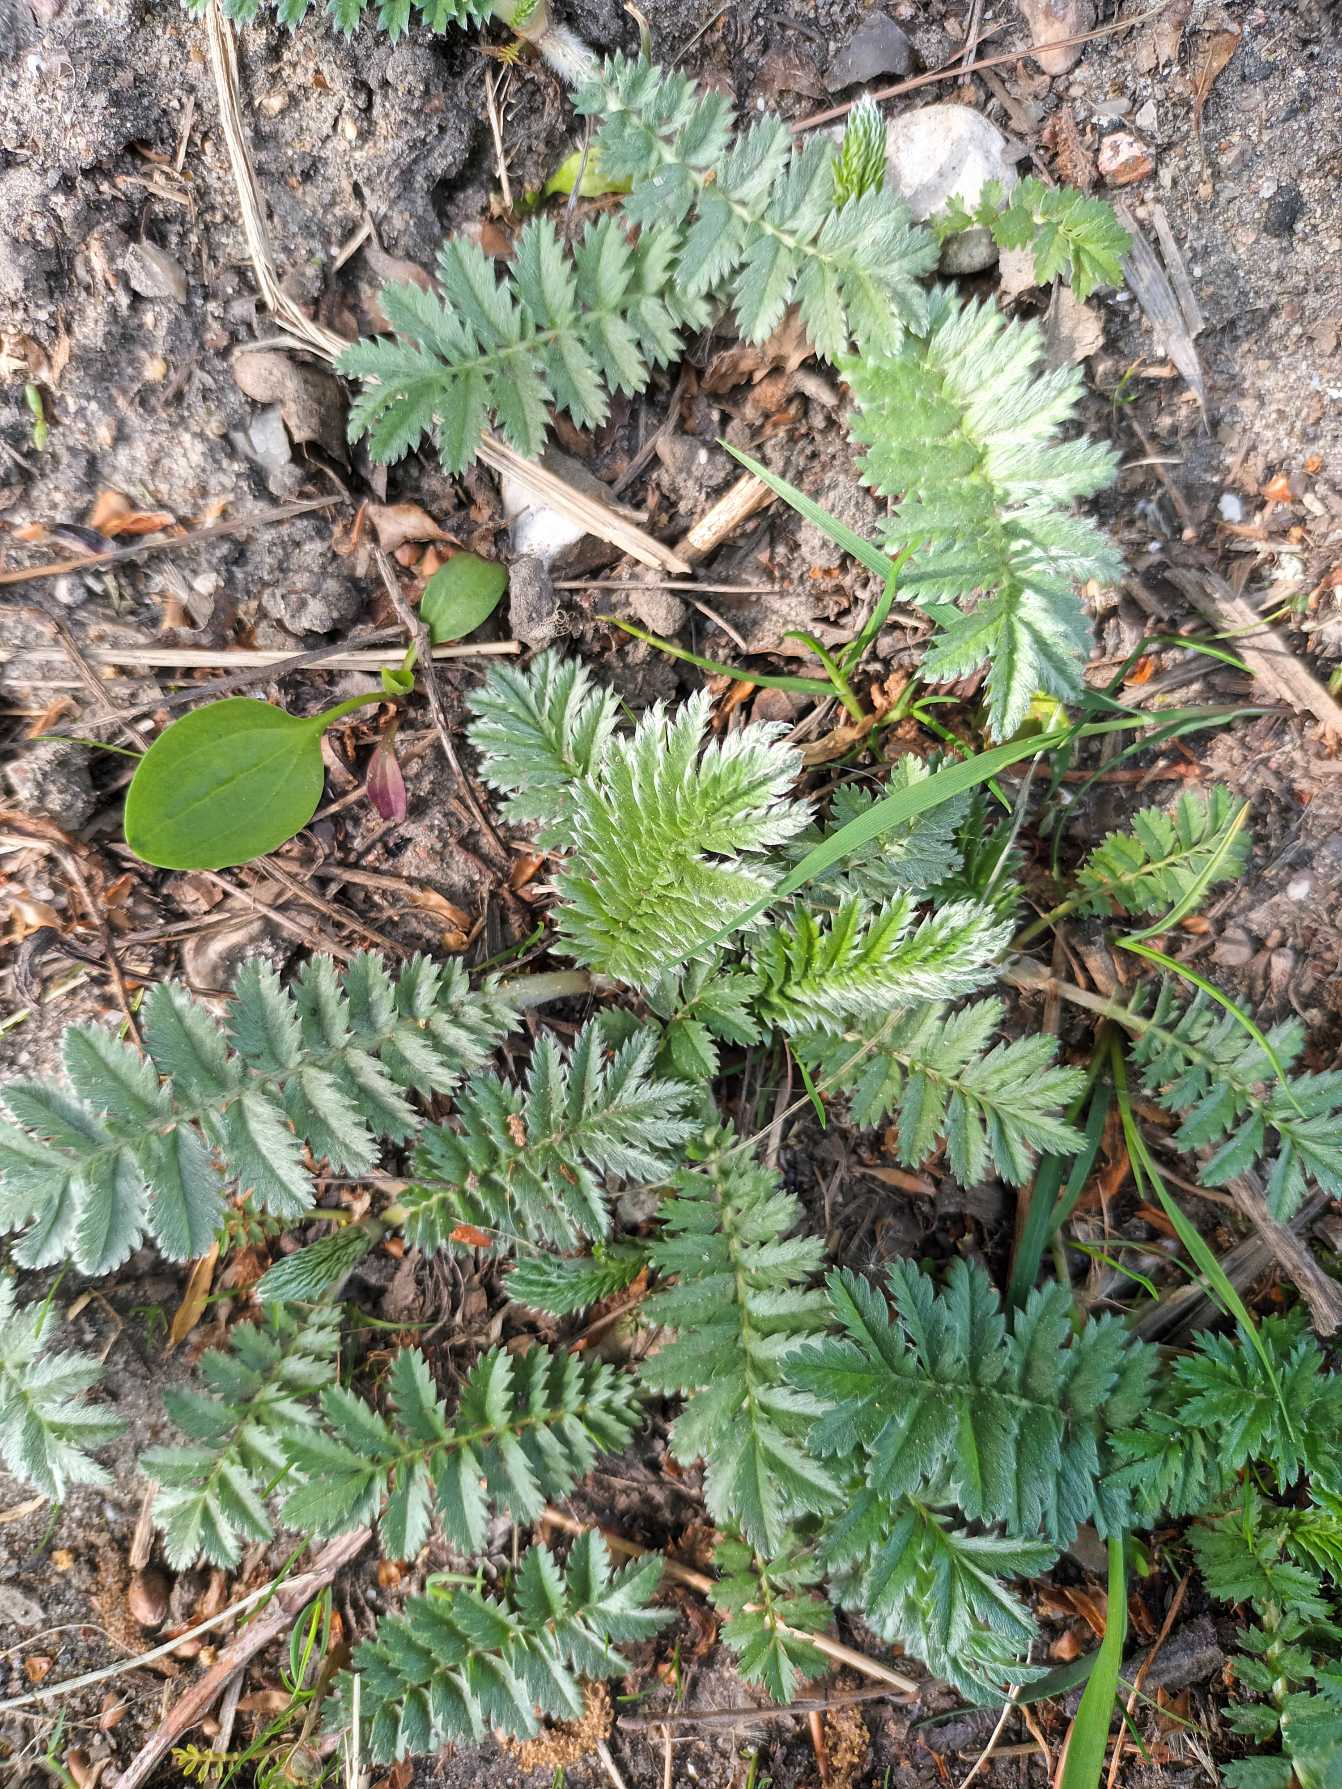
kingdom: Plantae
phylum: Tracheophyta
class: Magnoliopsida
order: Rosales
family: Rosaceae
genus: Argentina
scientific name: Argentina anserina
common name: Gåsepotentil
